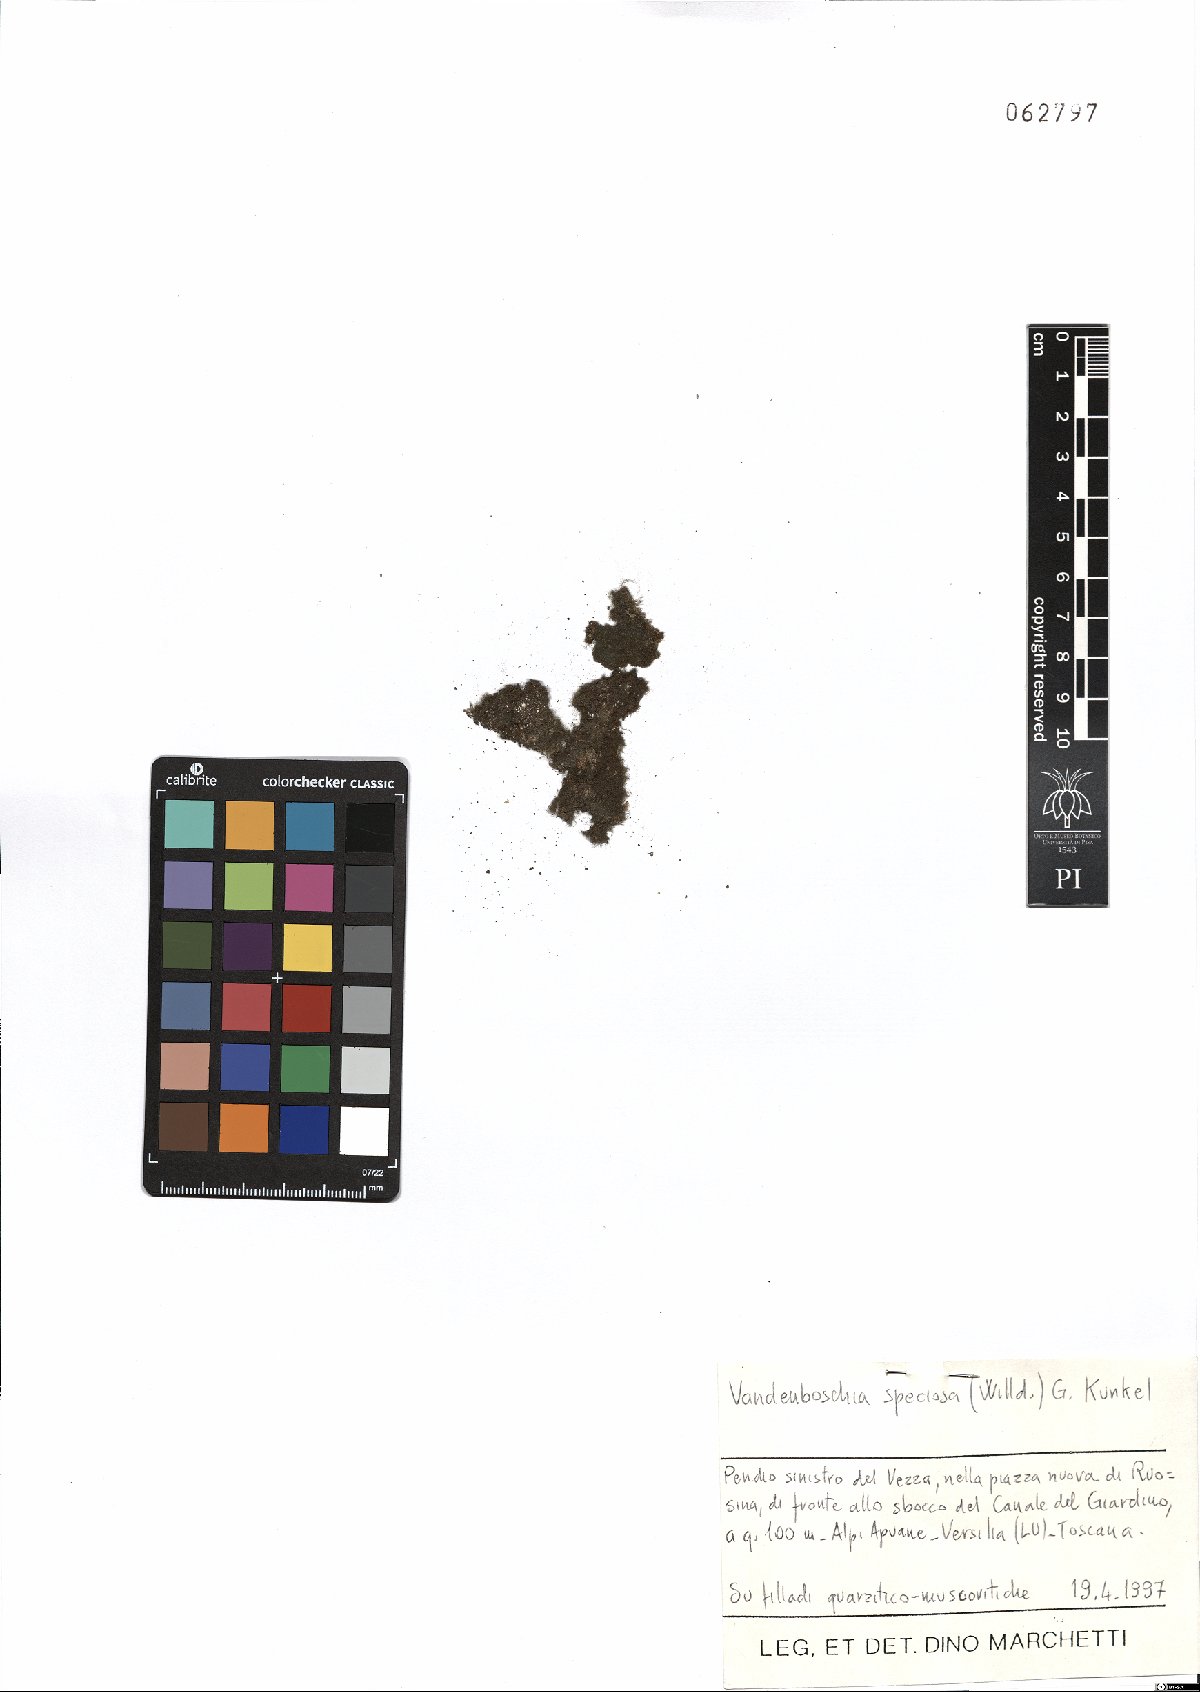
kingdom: Plantae
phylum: Tracheophyta
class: Polypodiopsida
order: Hymenophyllales
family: Hymenophyllaceae
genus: Vandenboschia
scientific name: Vandenboschia speciosa
